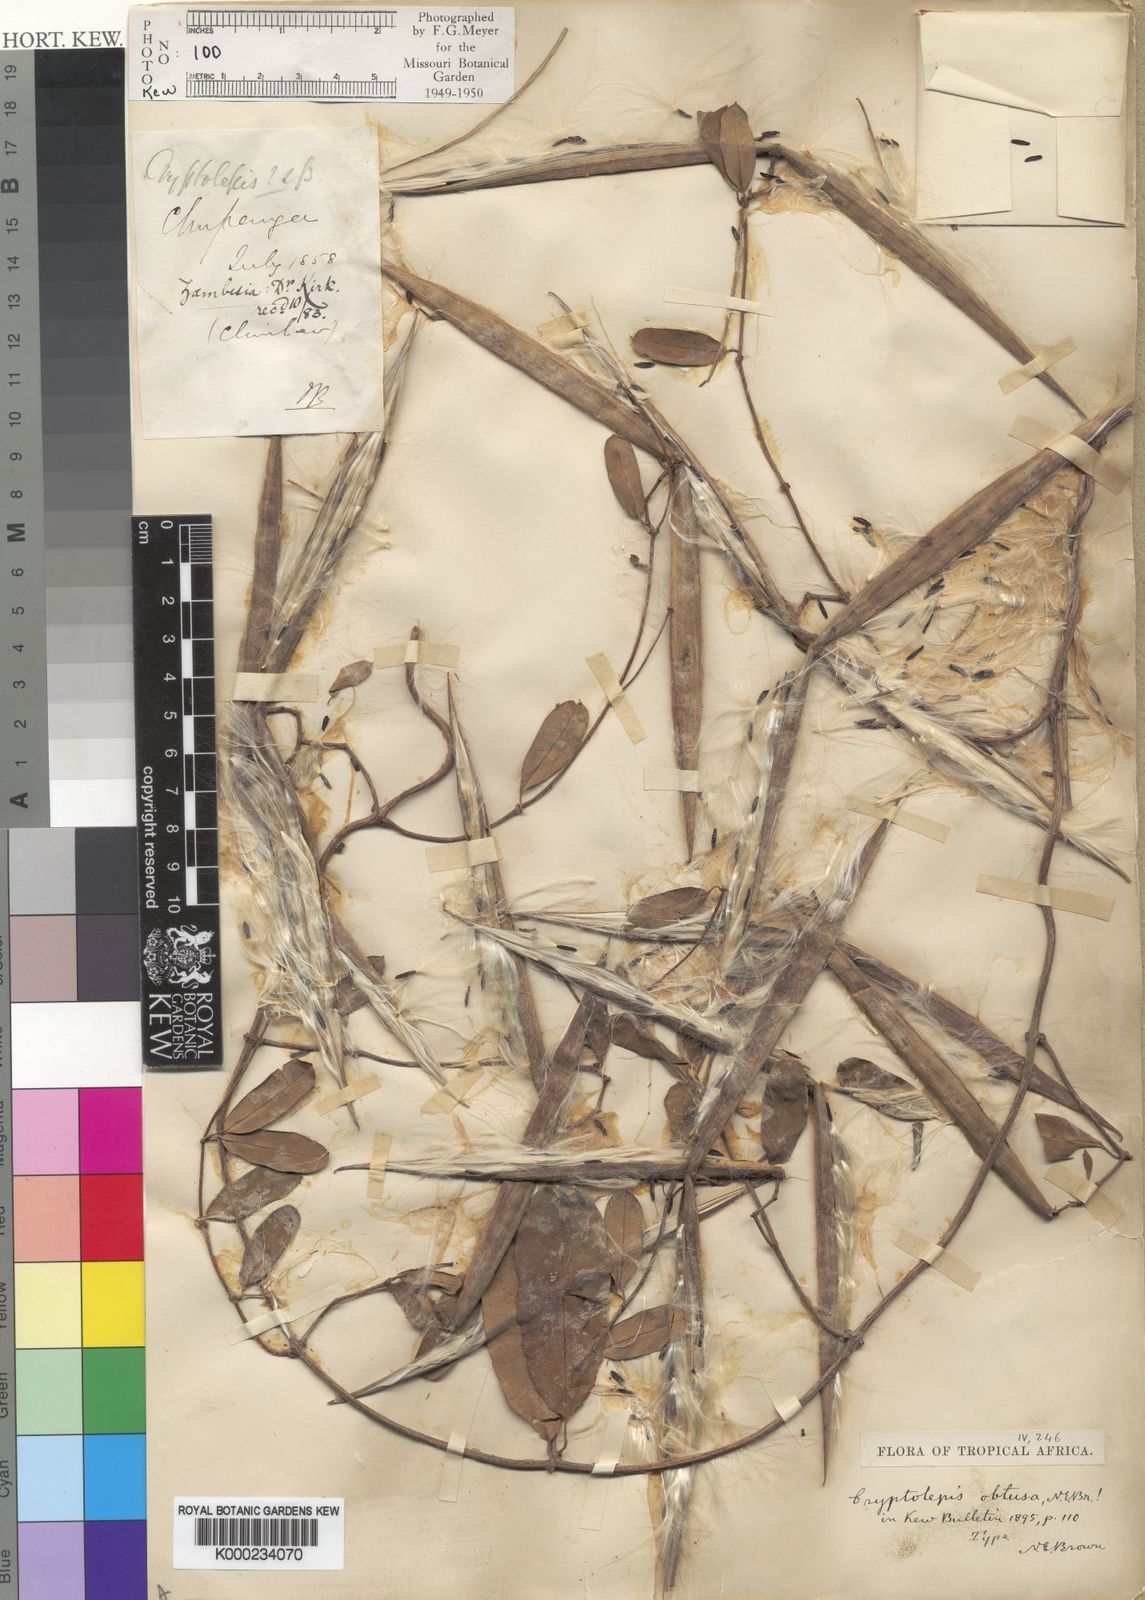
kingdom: Plantae
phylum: Tracheophyta
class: Magnoliopsida
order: Gentianales
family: Apocynaceae
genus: Cryptolepis
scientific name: Cryptolepis obtusa
